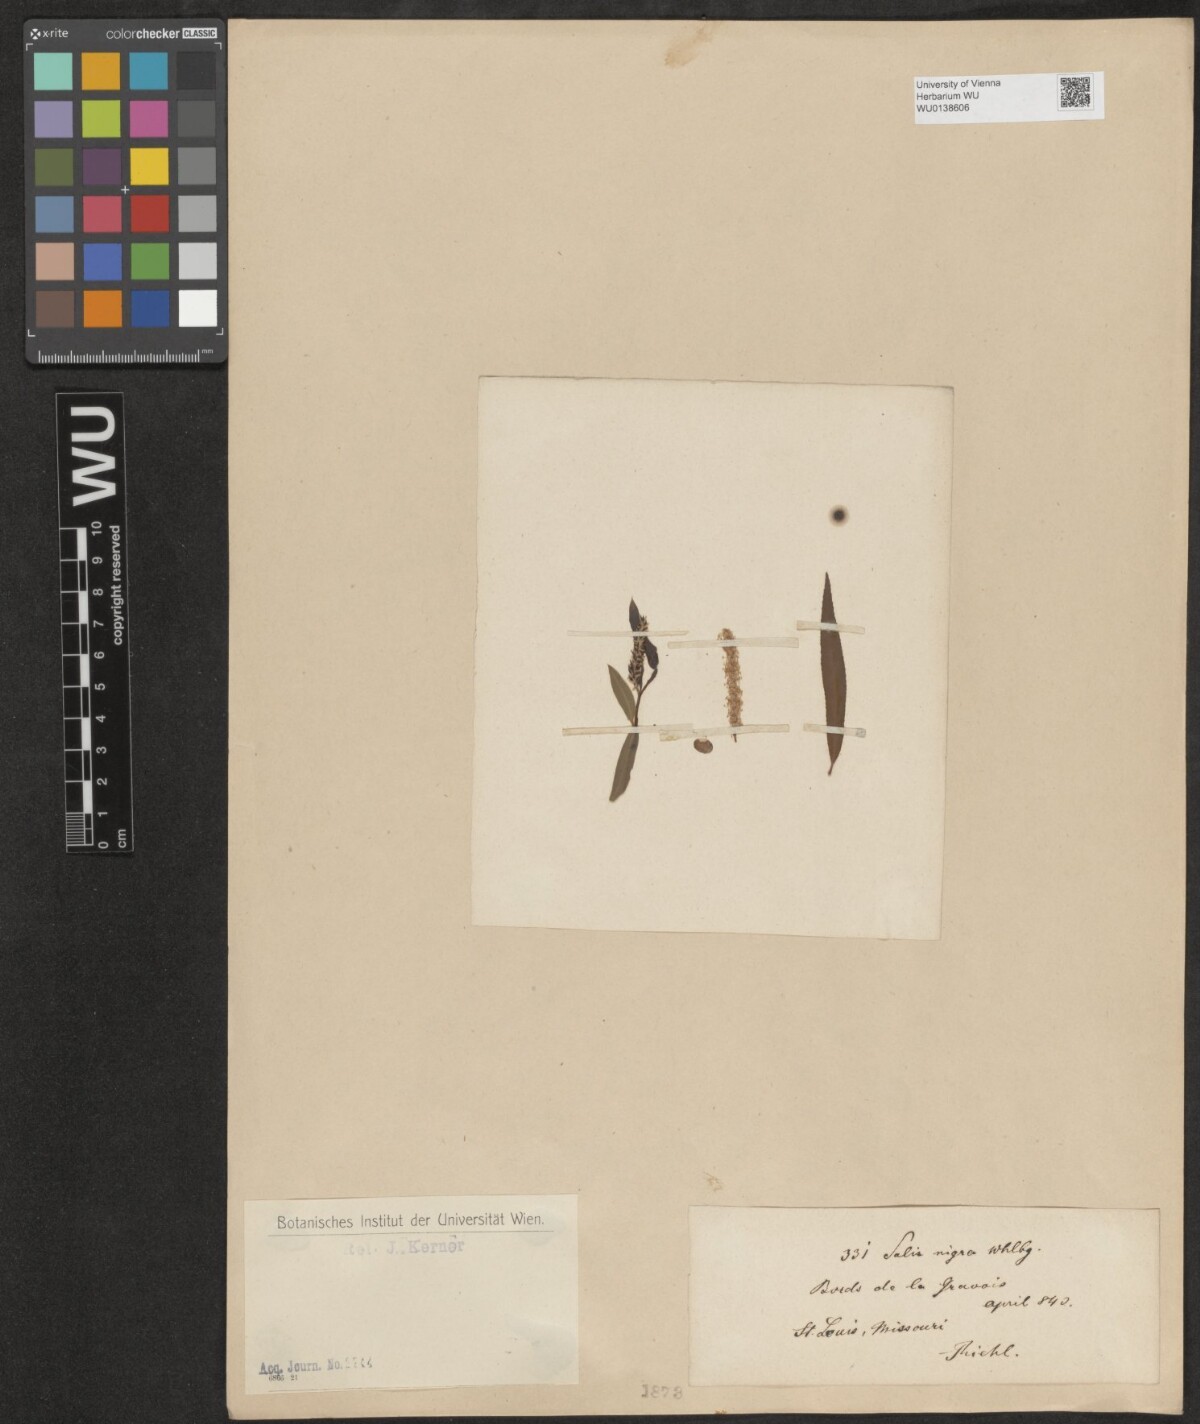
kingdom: Plantae
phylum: Tracheophyta
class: Magnoliopsida
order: Malpighiales
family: Salicaceae
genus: Salix
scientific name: Salix nigra
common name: Black willow
